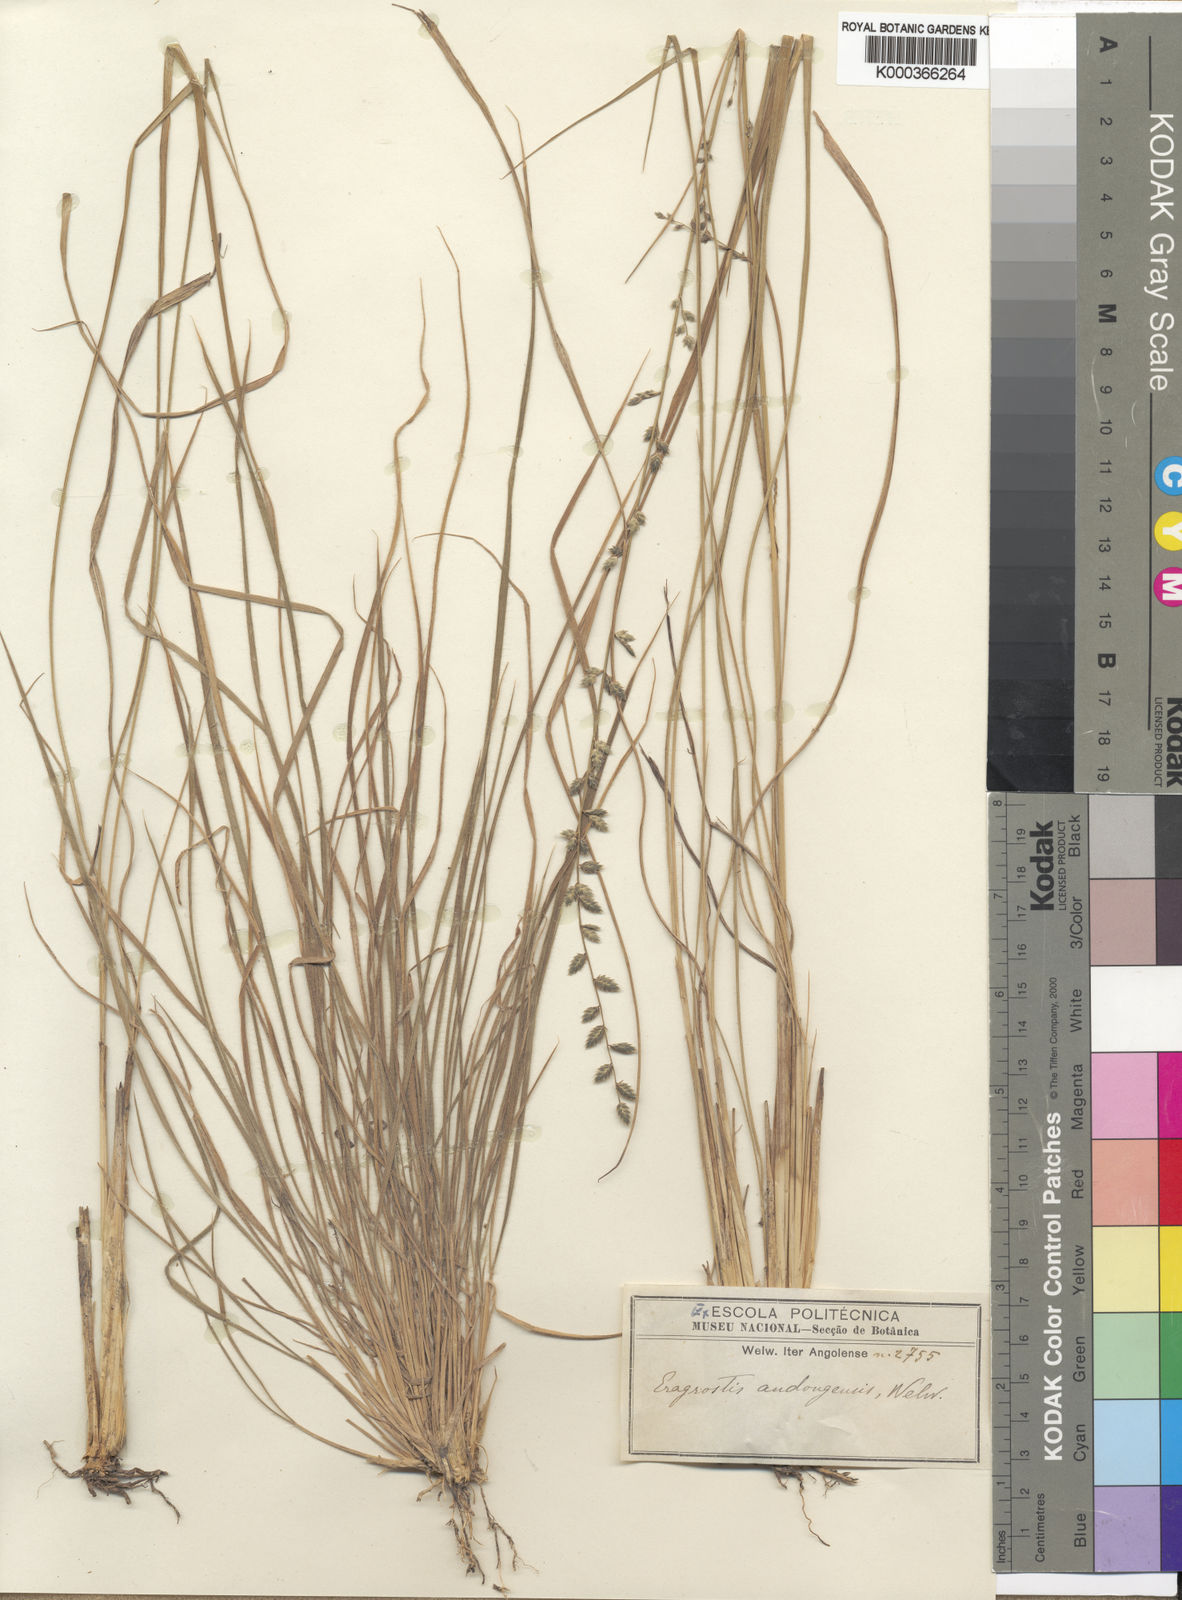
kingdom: Plantae
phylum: Tracheophyta
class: Liliopsida
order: Poales
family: Poaceae
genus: Eragrostis
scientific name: Eragrostis nindensis
